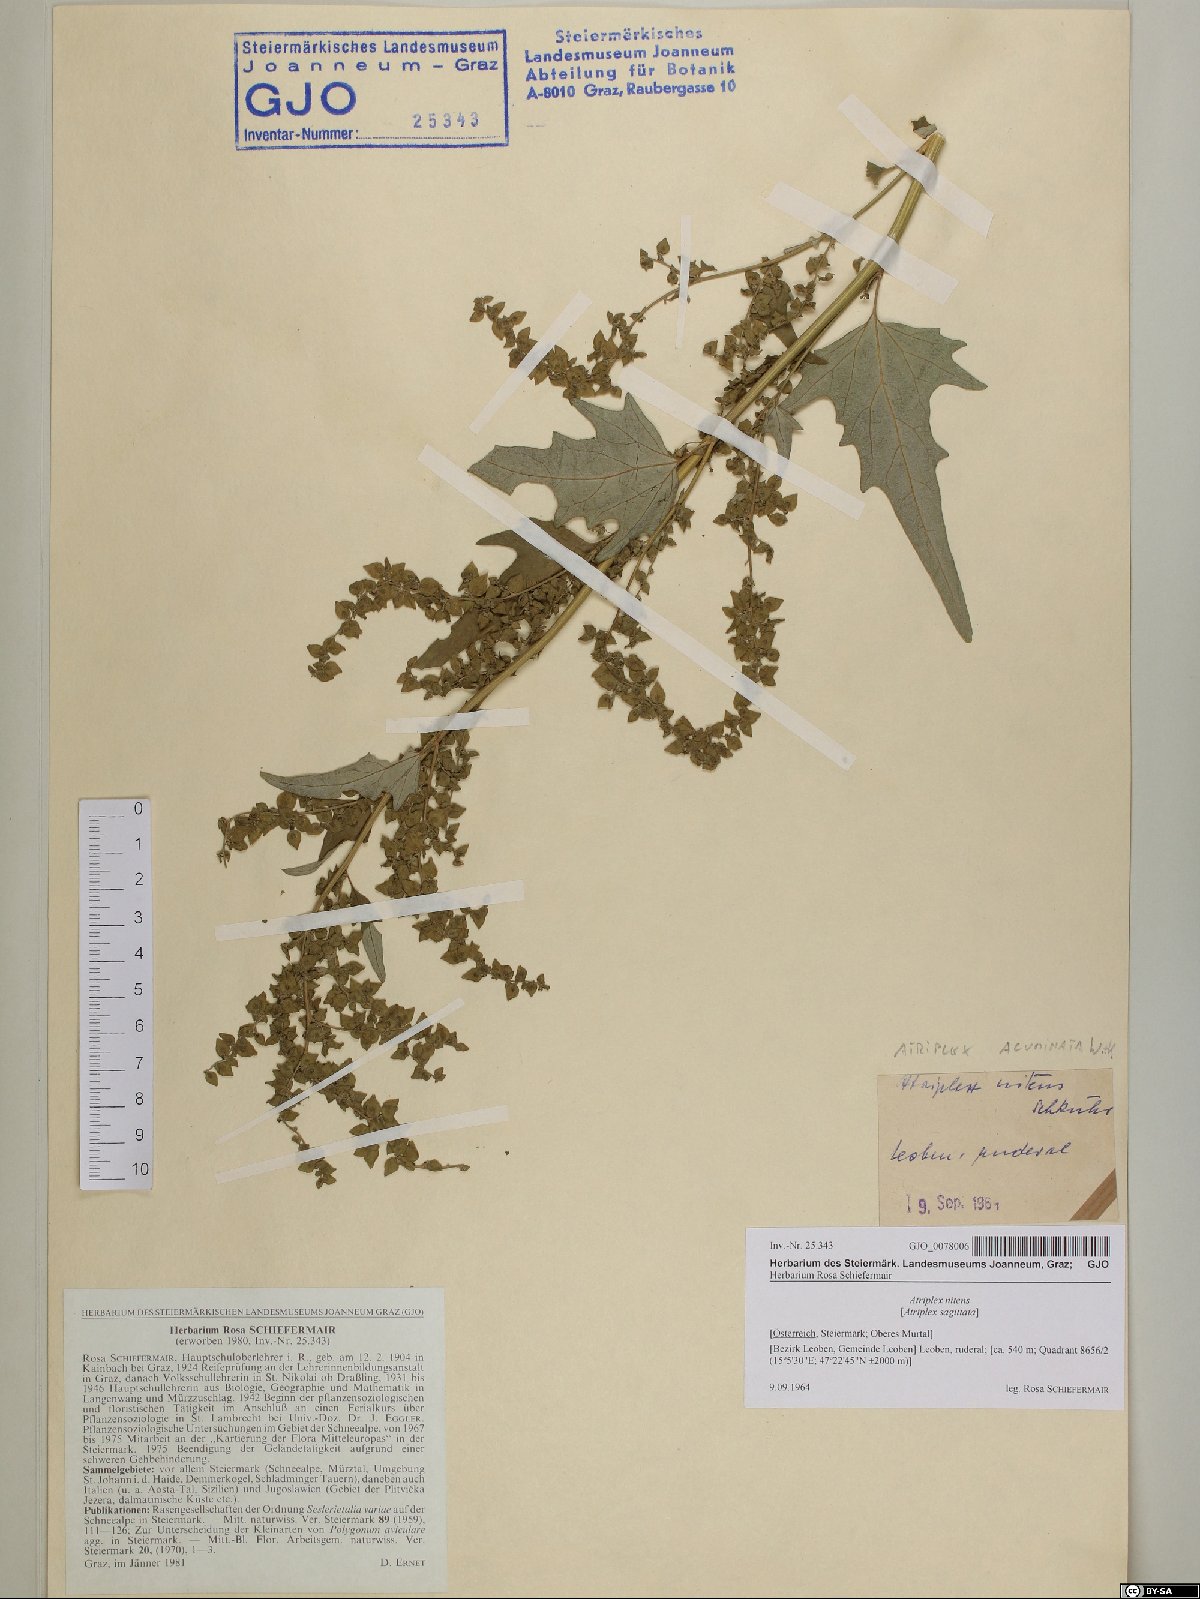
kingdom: Plantae
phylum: Tracheophyta
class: Magnoliopsida
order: Caryophyllales
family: Amaranthaceae
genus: Atriplex
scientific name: Atriplex sagittata
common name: Purple orache
